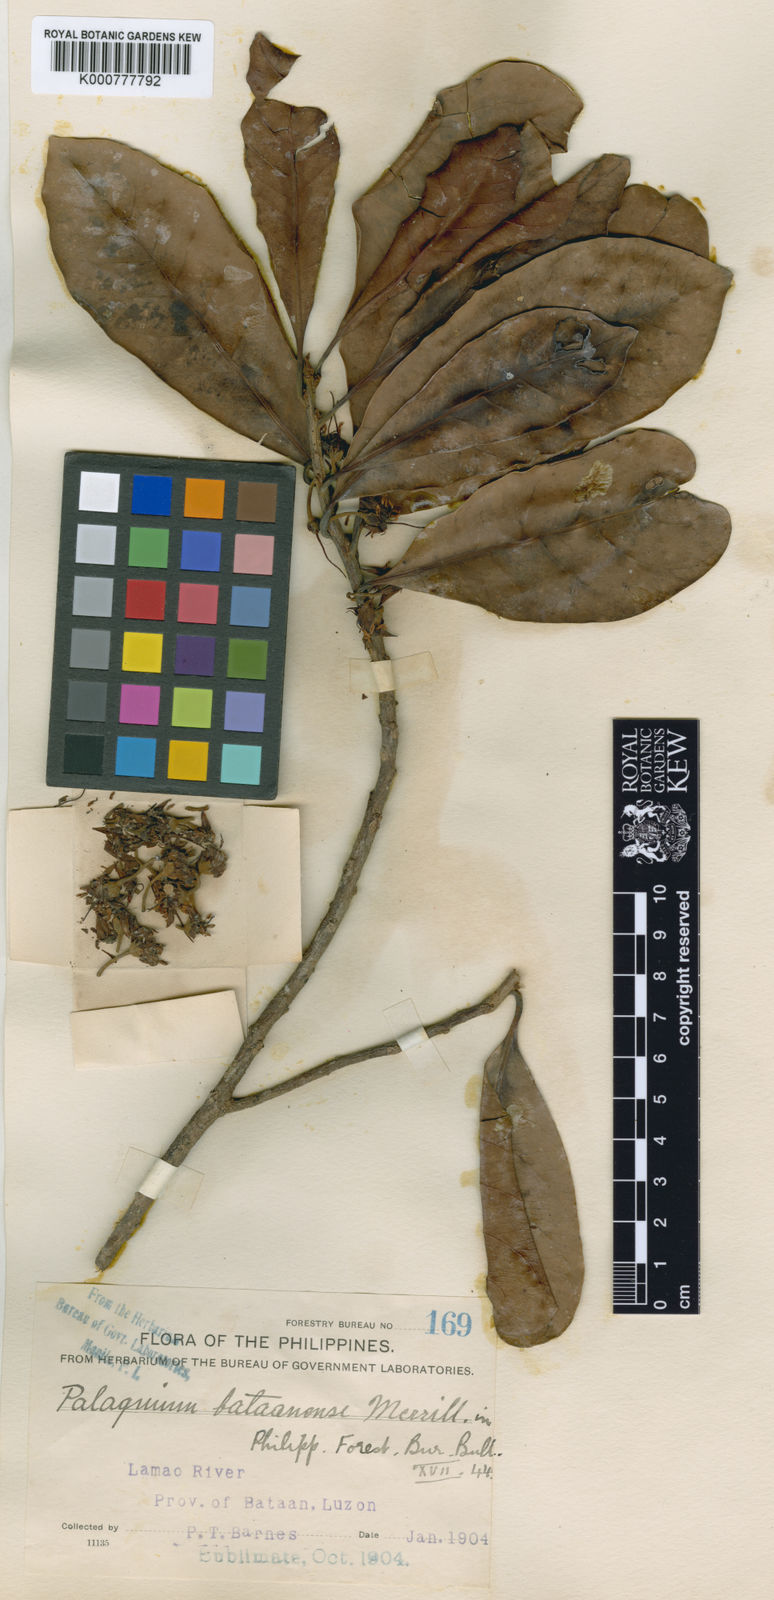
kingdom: Plantae
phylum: Tracheophyta
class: Magnoliopsida
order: Ericales
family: Sapotaceae
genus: Palaquium
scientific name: Palaquium bataanense
